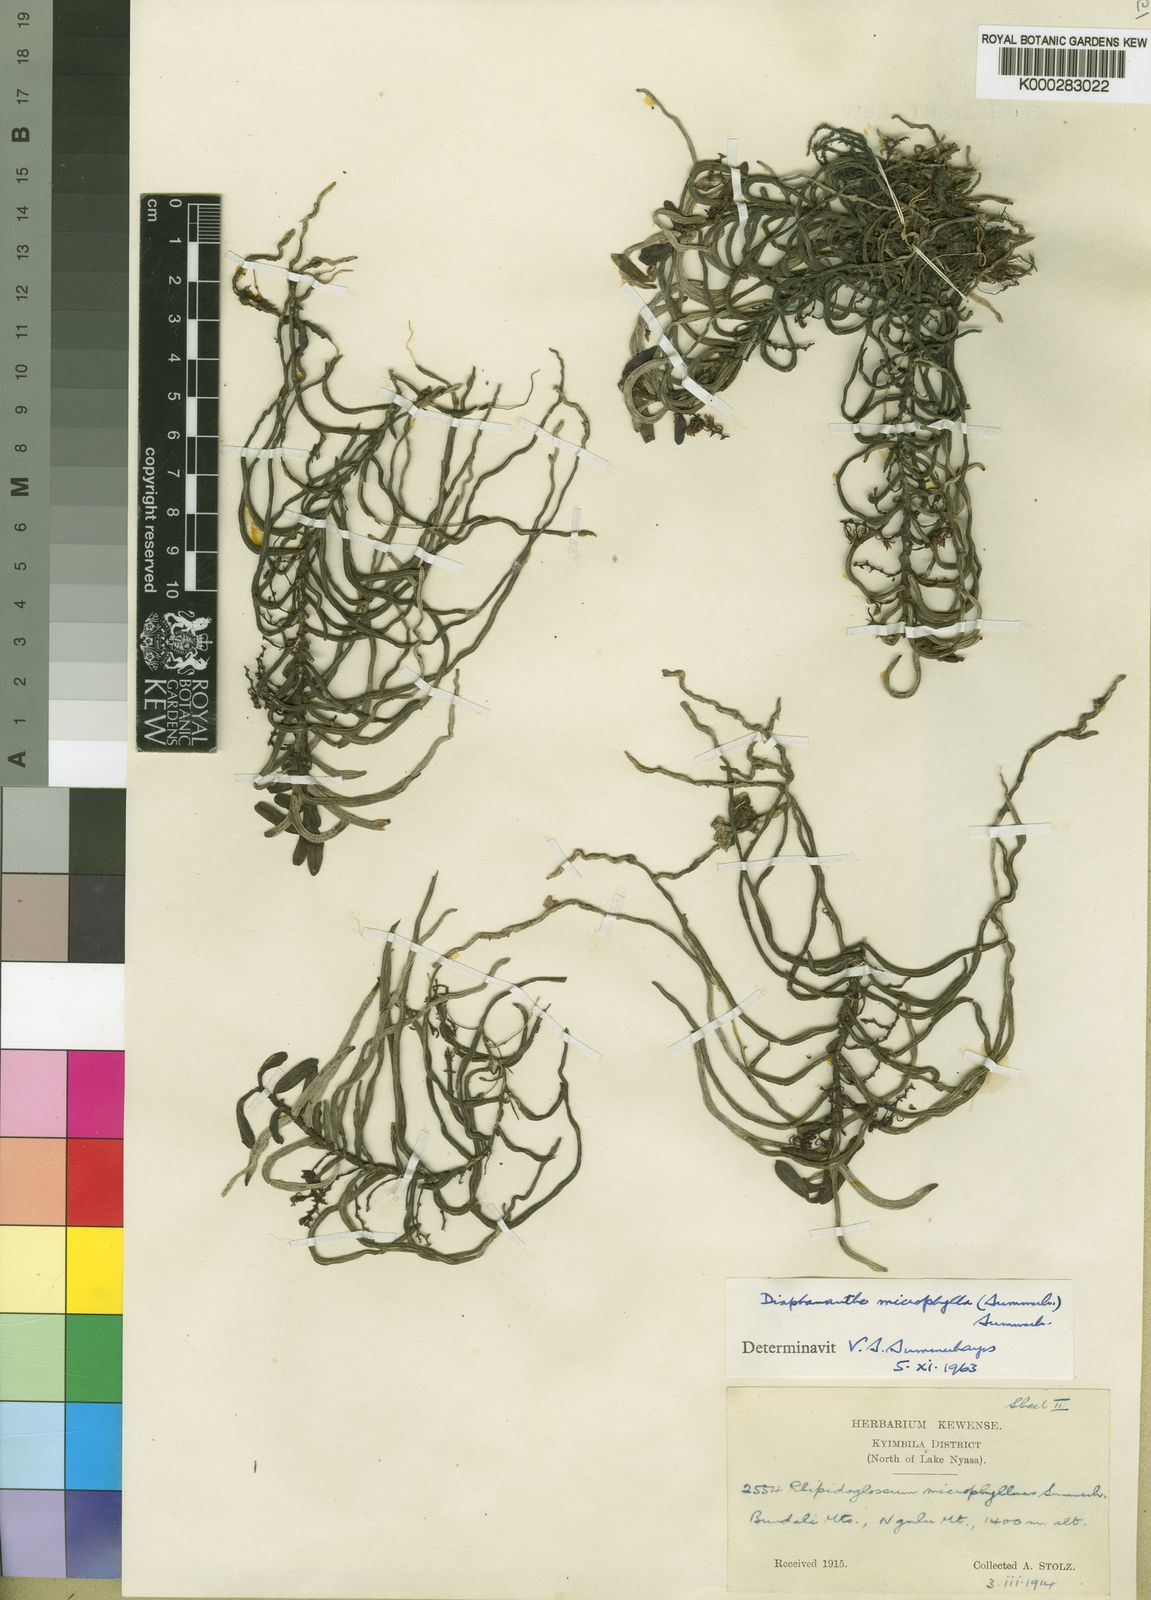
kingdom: Plantae
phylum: Tracheophyta
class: Liliopsida
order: Asparagales
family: Orchidaceae
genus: Rhipidoglossum
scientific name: Rhipidoglossum microphyllum
